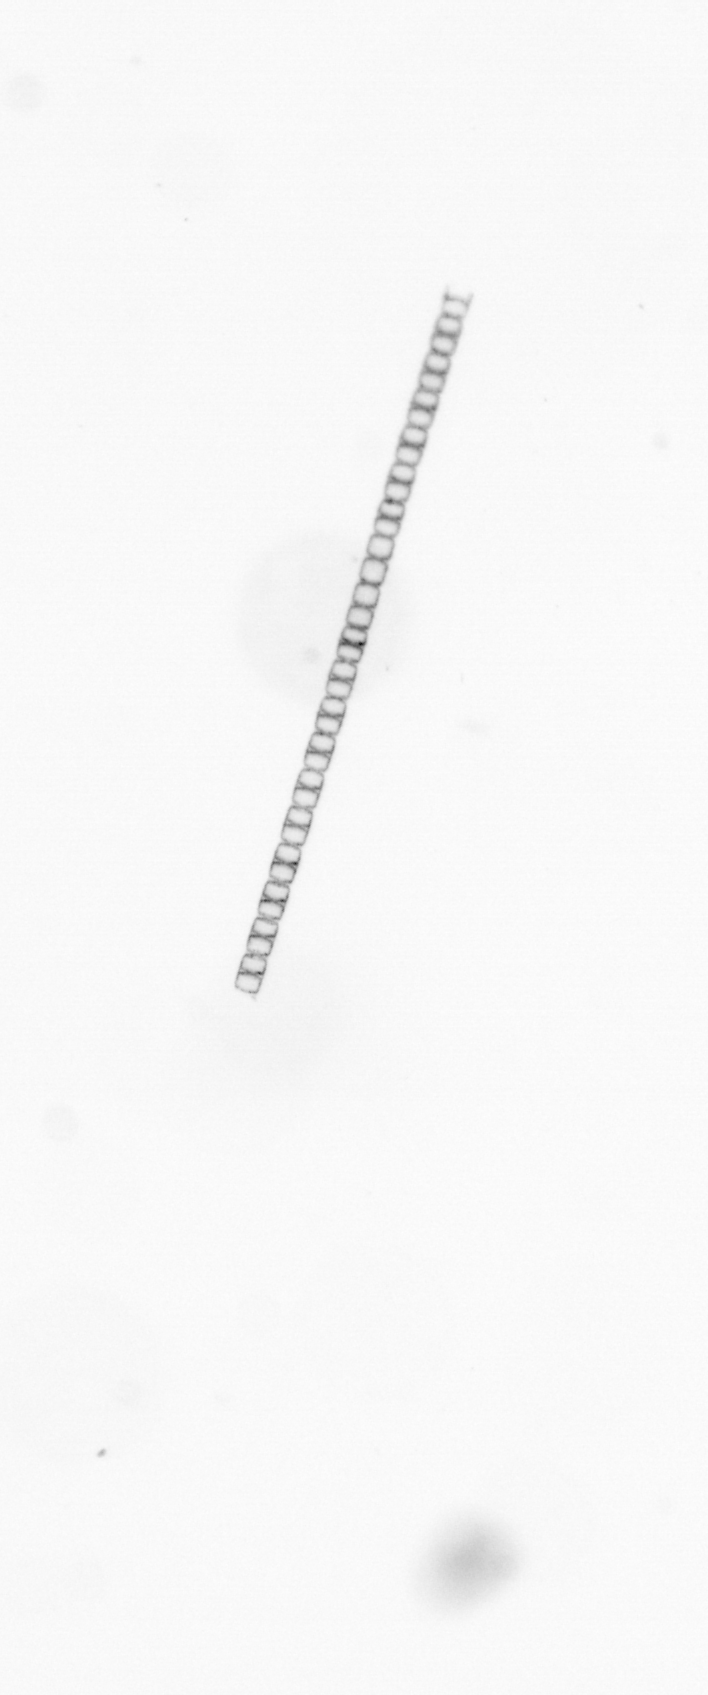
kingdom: Chromista
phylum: Ochrophyta
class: Bacillariophyceae
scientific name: Bacillariophyceae
